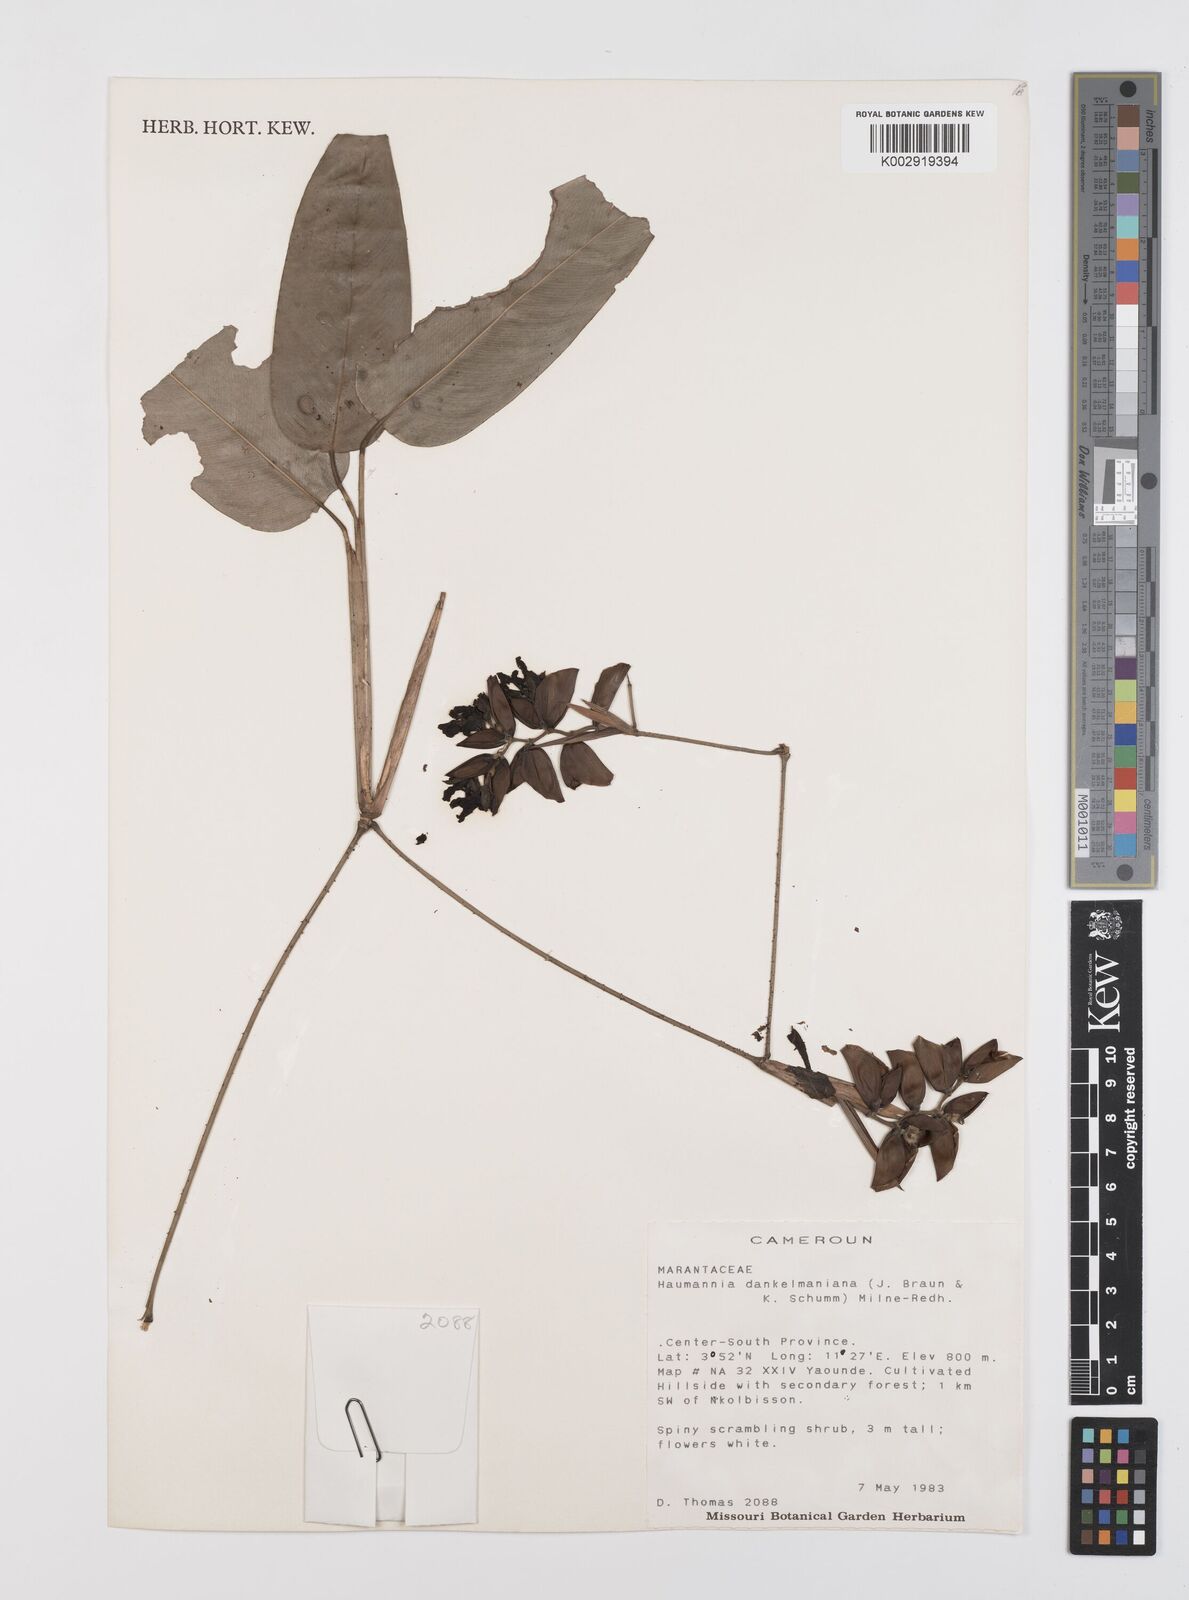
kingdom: Plantae
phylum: Tracheophyta
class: Liliopsida
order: Zingiberales
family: Marantaceae
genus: Haumania
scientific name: Haumania danckelmaniana
